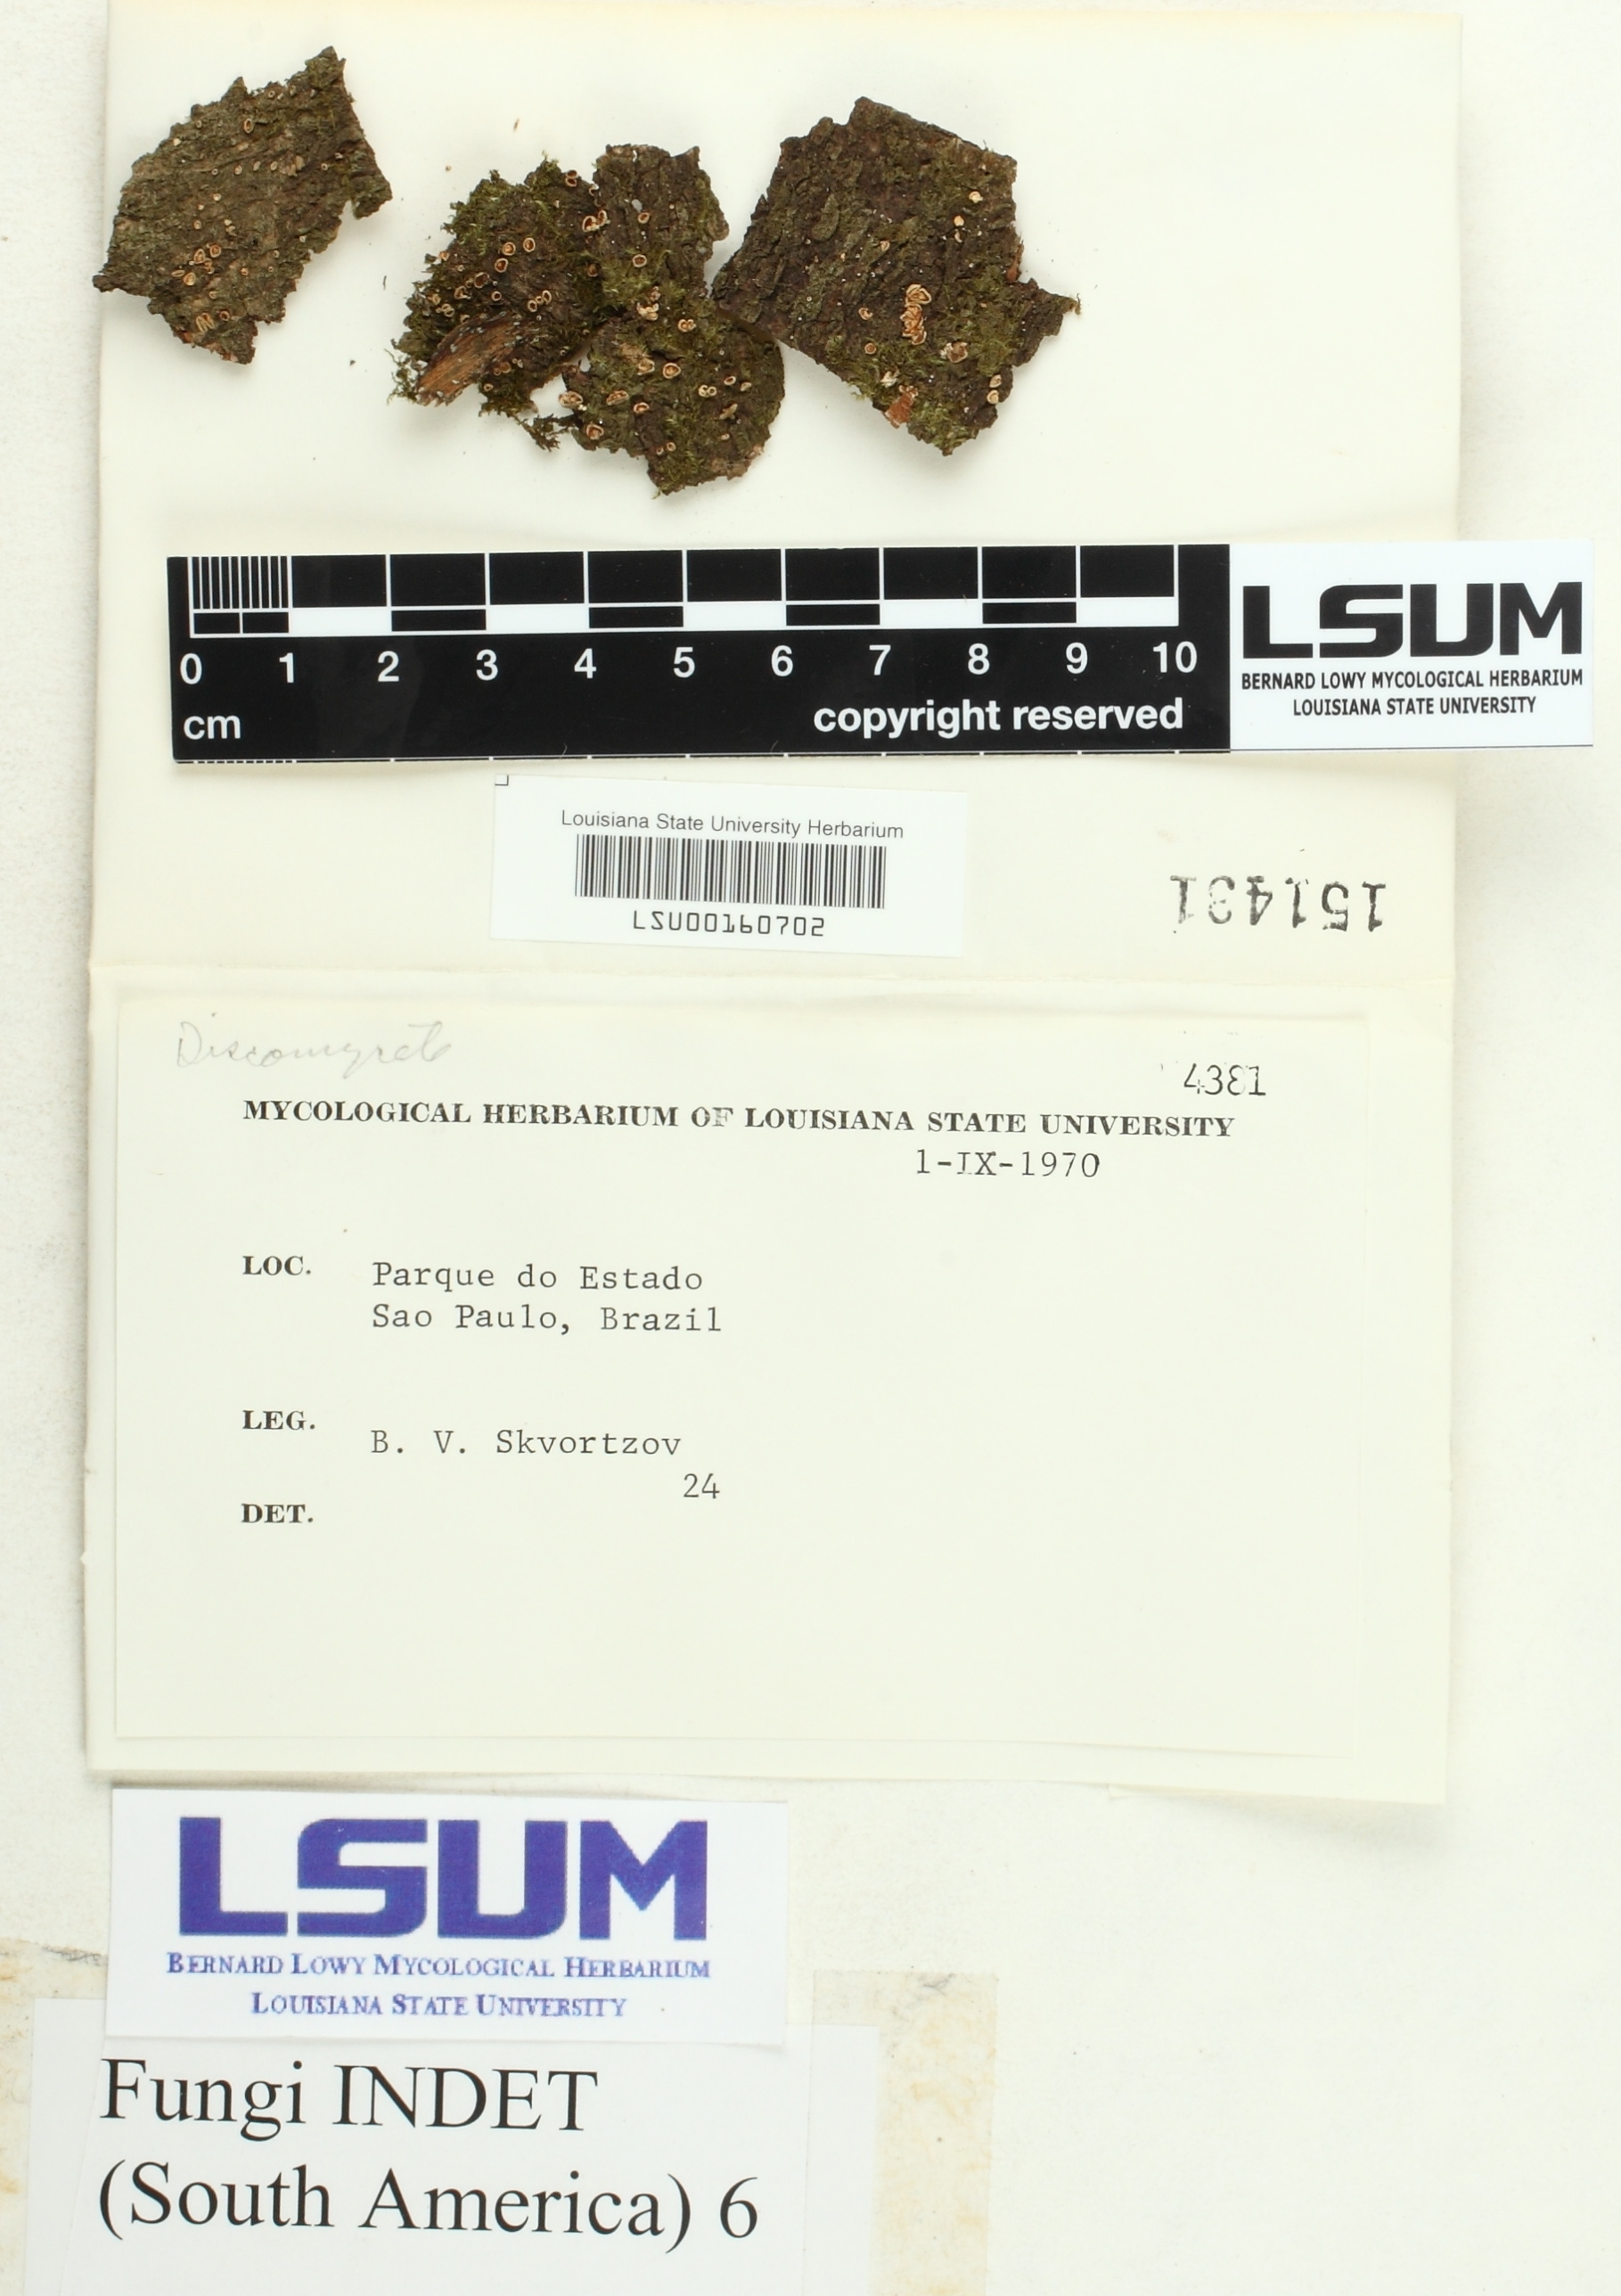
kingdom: Fungi
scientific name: Fungi
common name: Fungi
